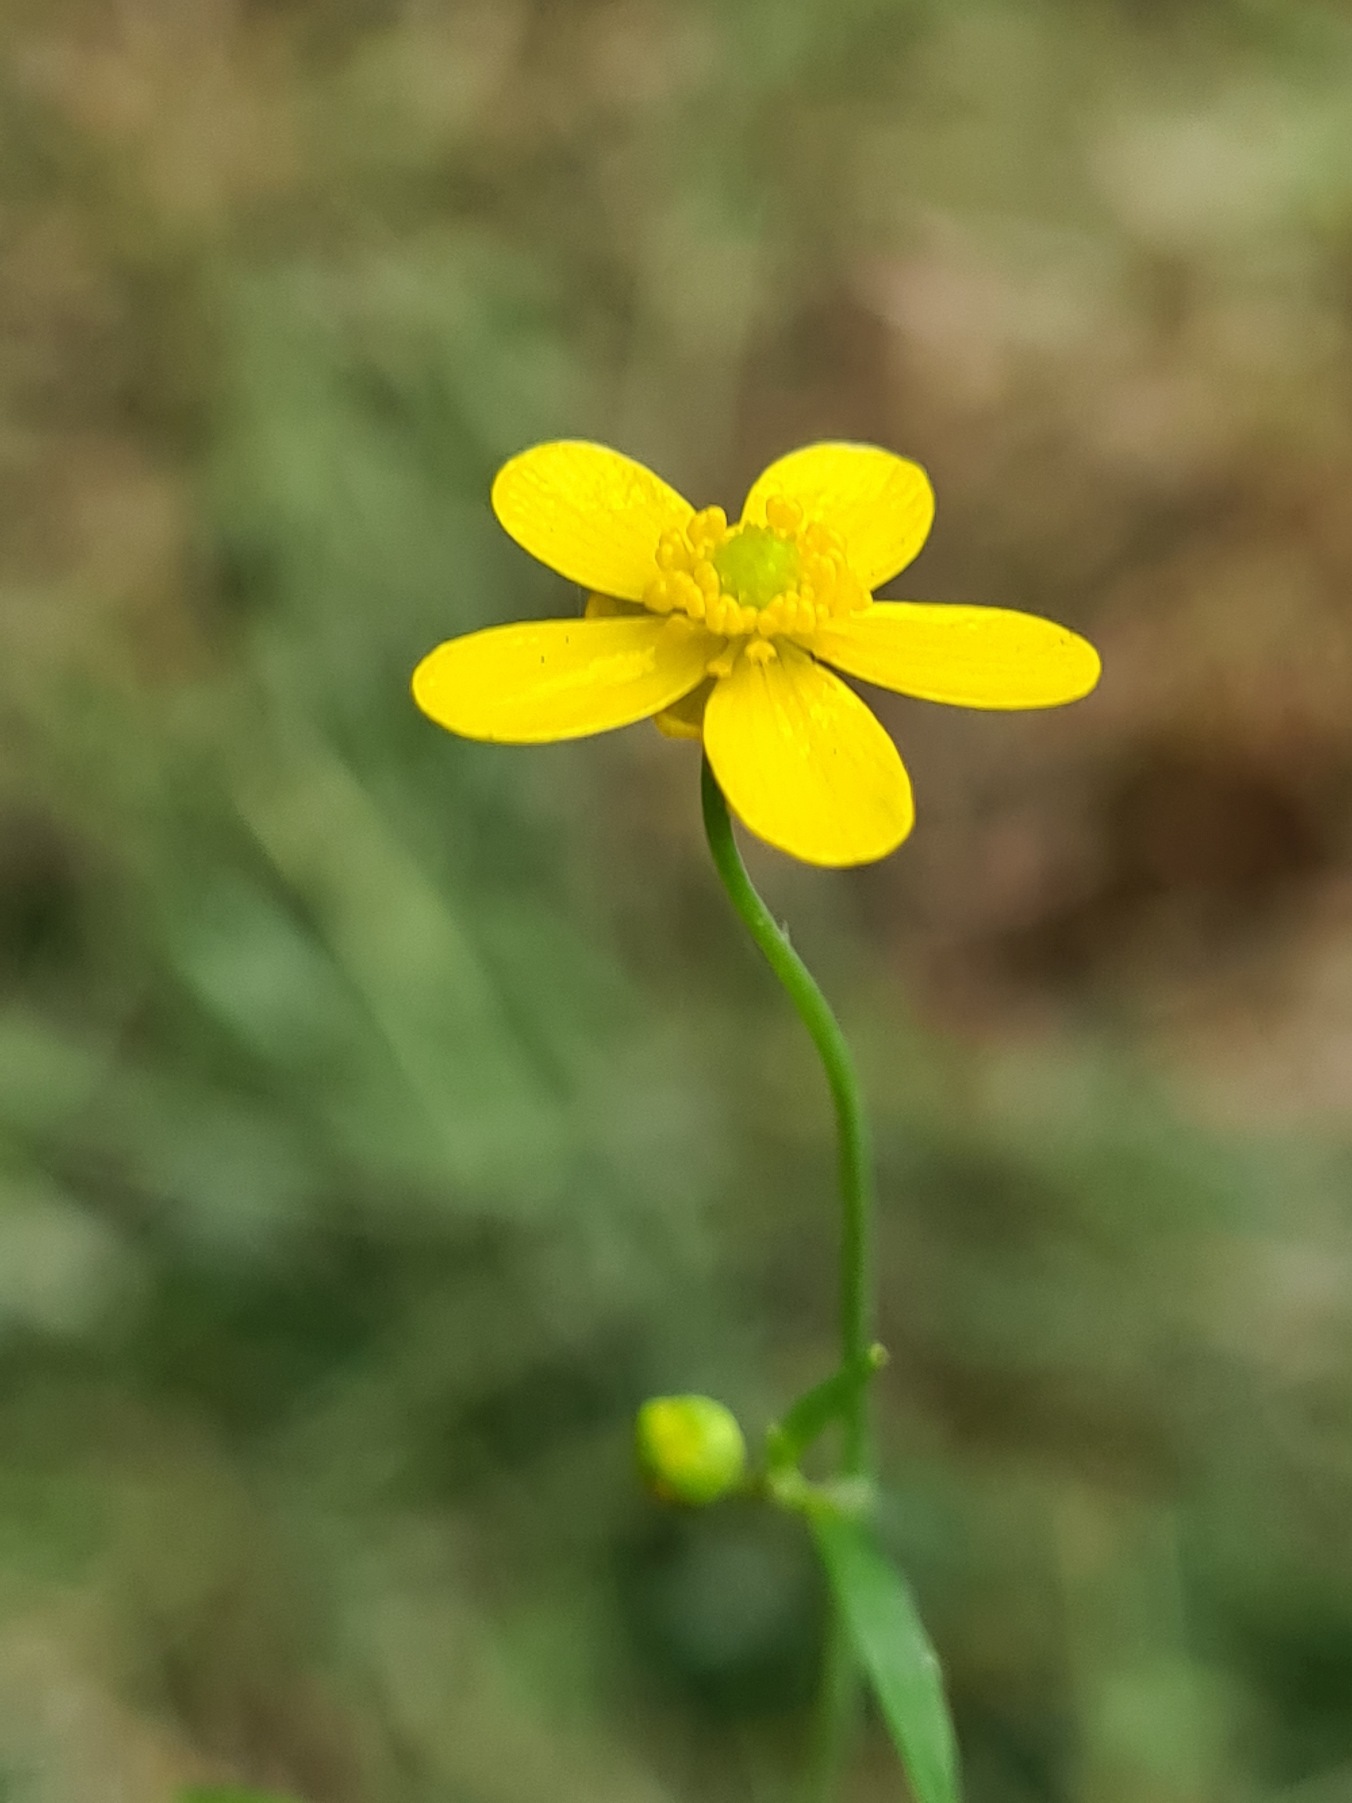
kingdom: Plantae
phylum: Tracheophyta
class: Magnoliopsida
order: Ranunculales
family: Ranunculaceae
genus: Ranunculus
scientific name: Ranunculus flammula
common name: Kær-ranunkel
